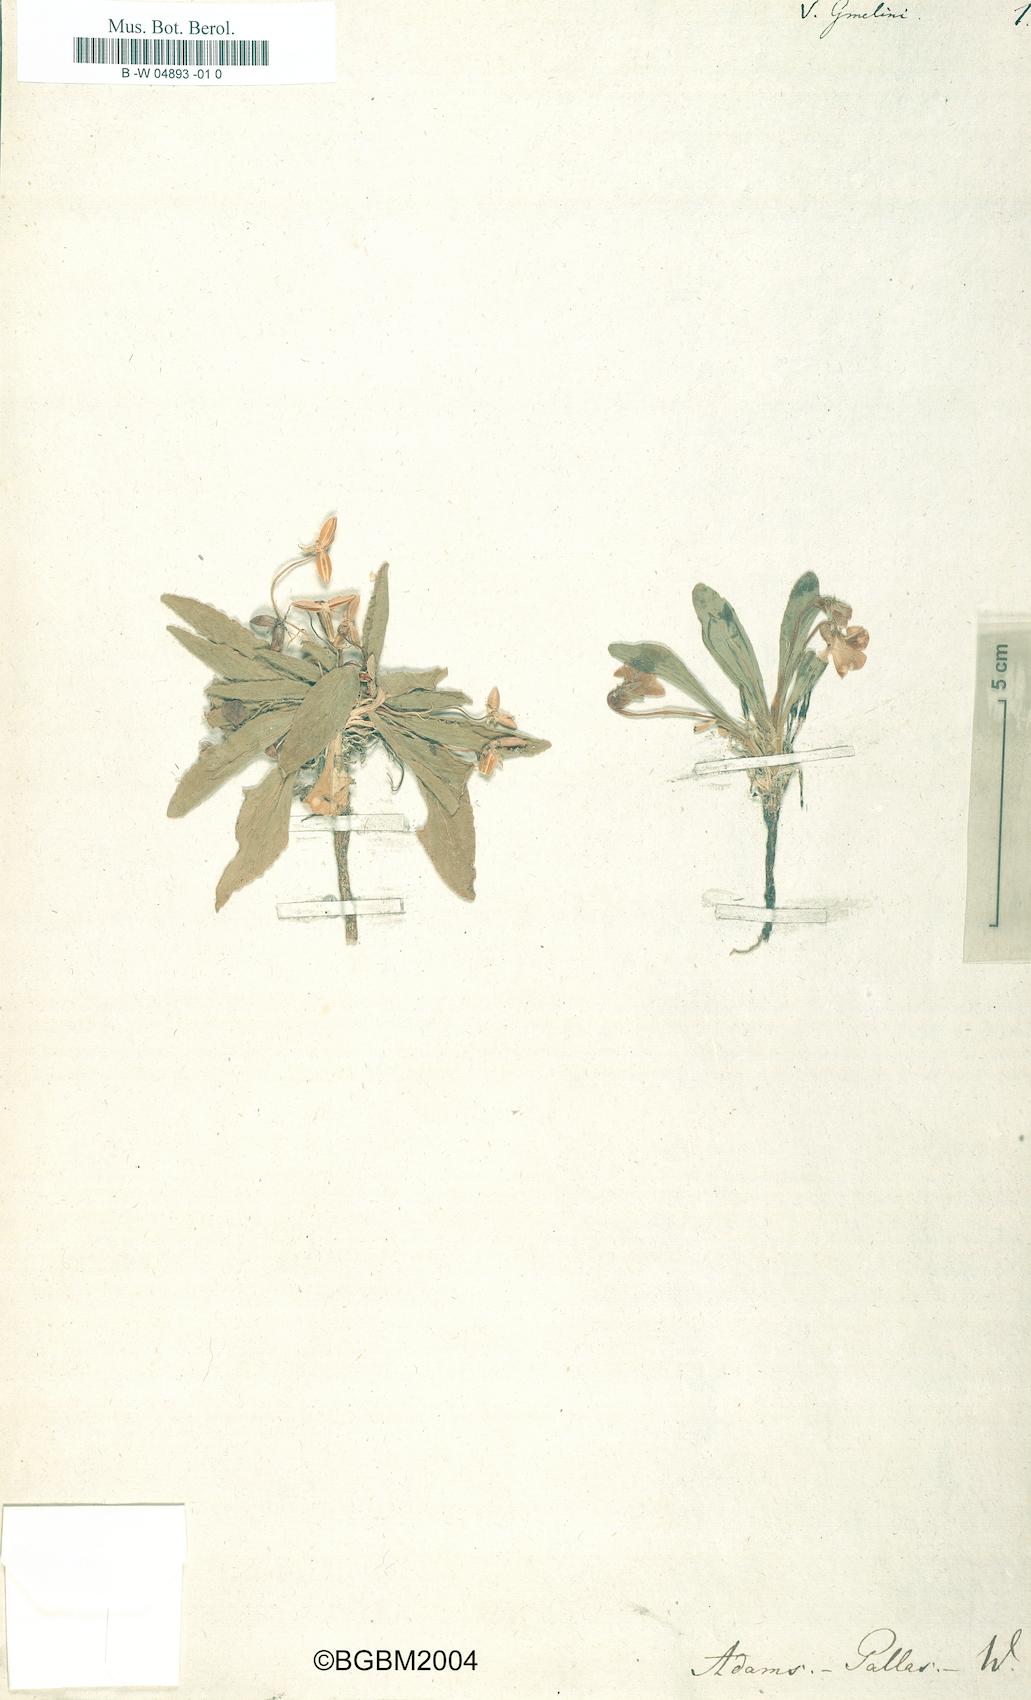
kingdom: Plantae
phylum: Tracheophyta
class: Magnoliopsida
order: Malpighiales
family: Violaceae
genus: Viola
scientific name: Viola
